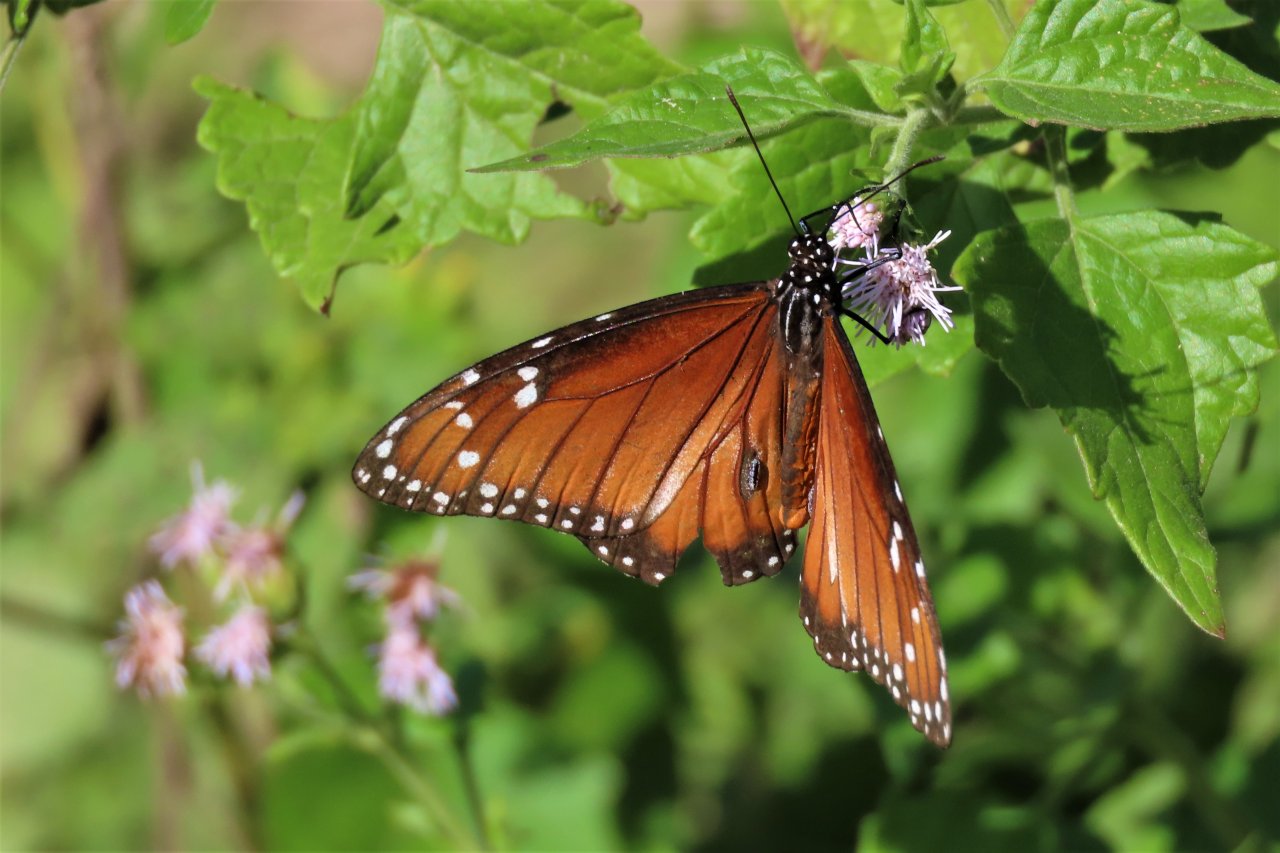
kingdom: Animalia
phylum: Arthropoda
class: Insecta
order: Lepidoptera
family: Nymphalidae
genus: Danaus
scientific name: Danaus eresimus
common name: Soldier
